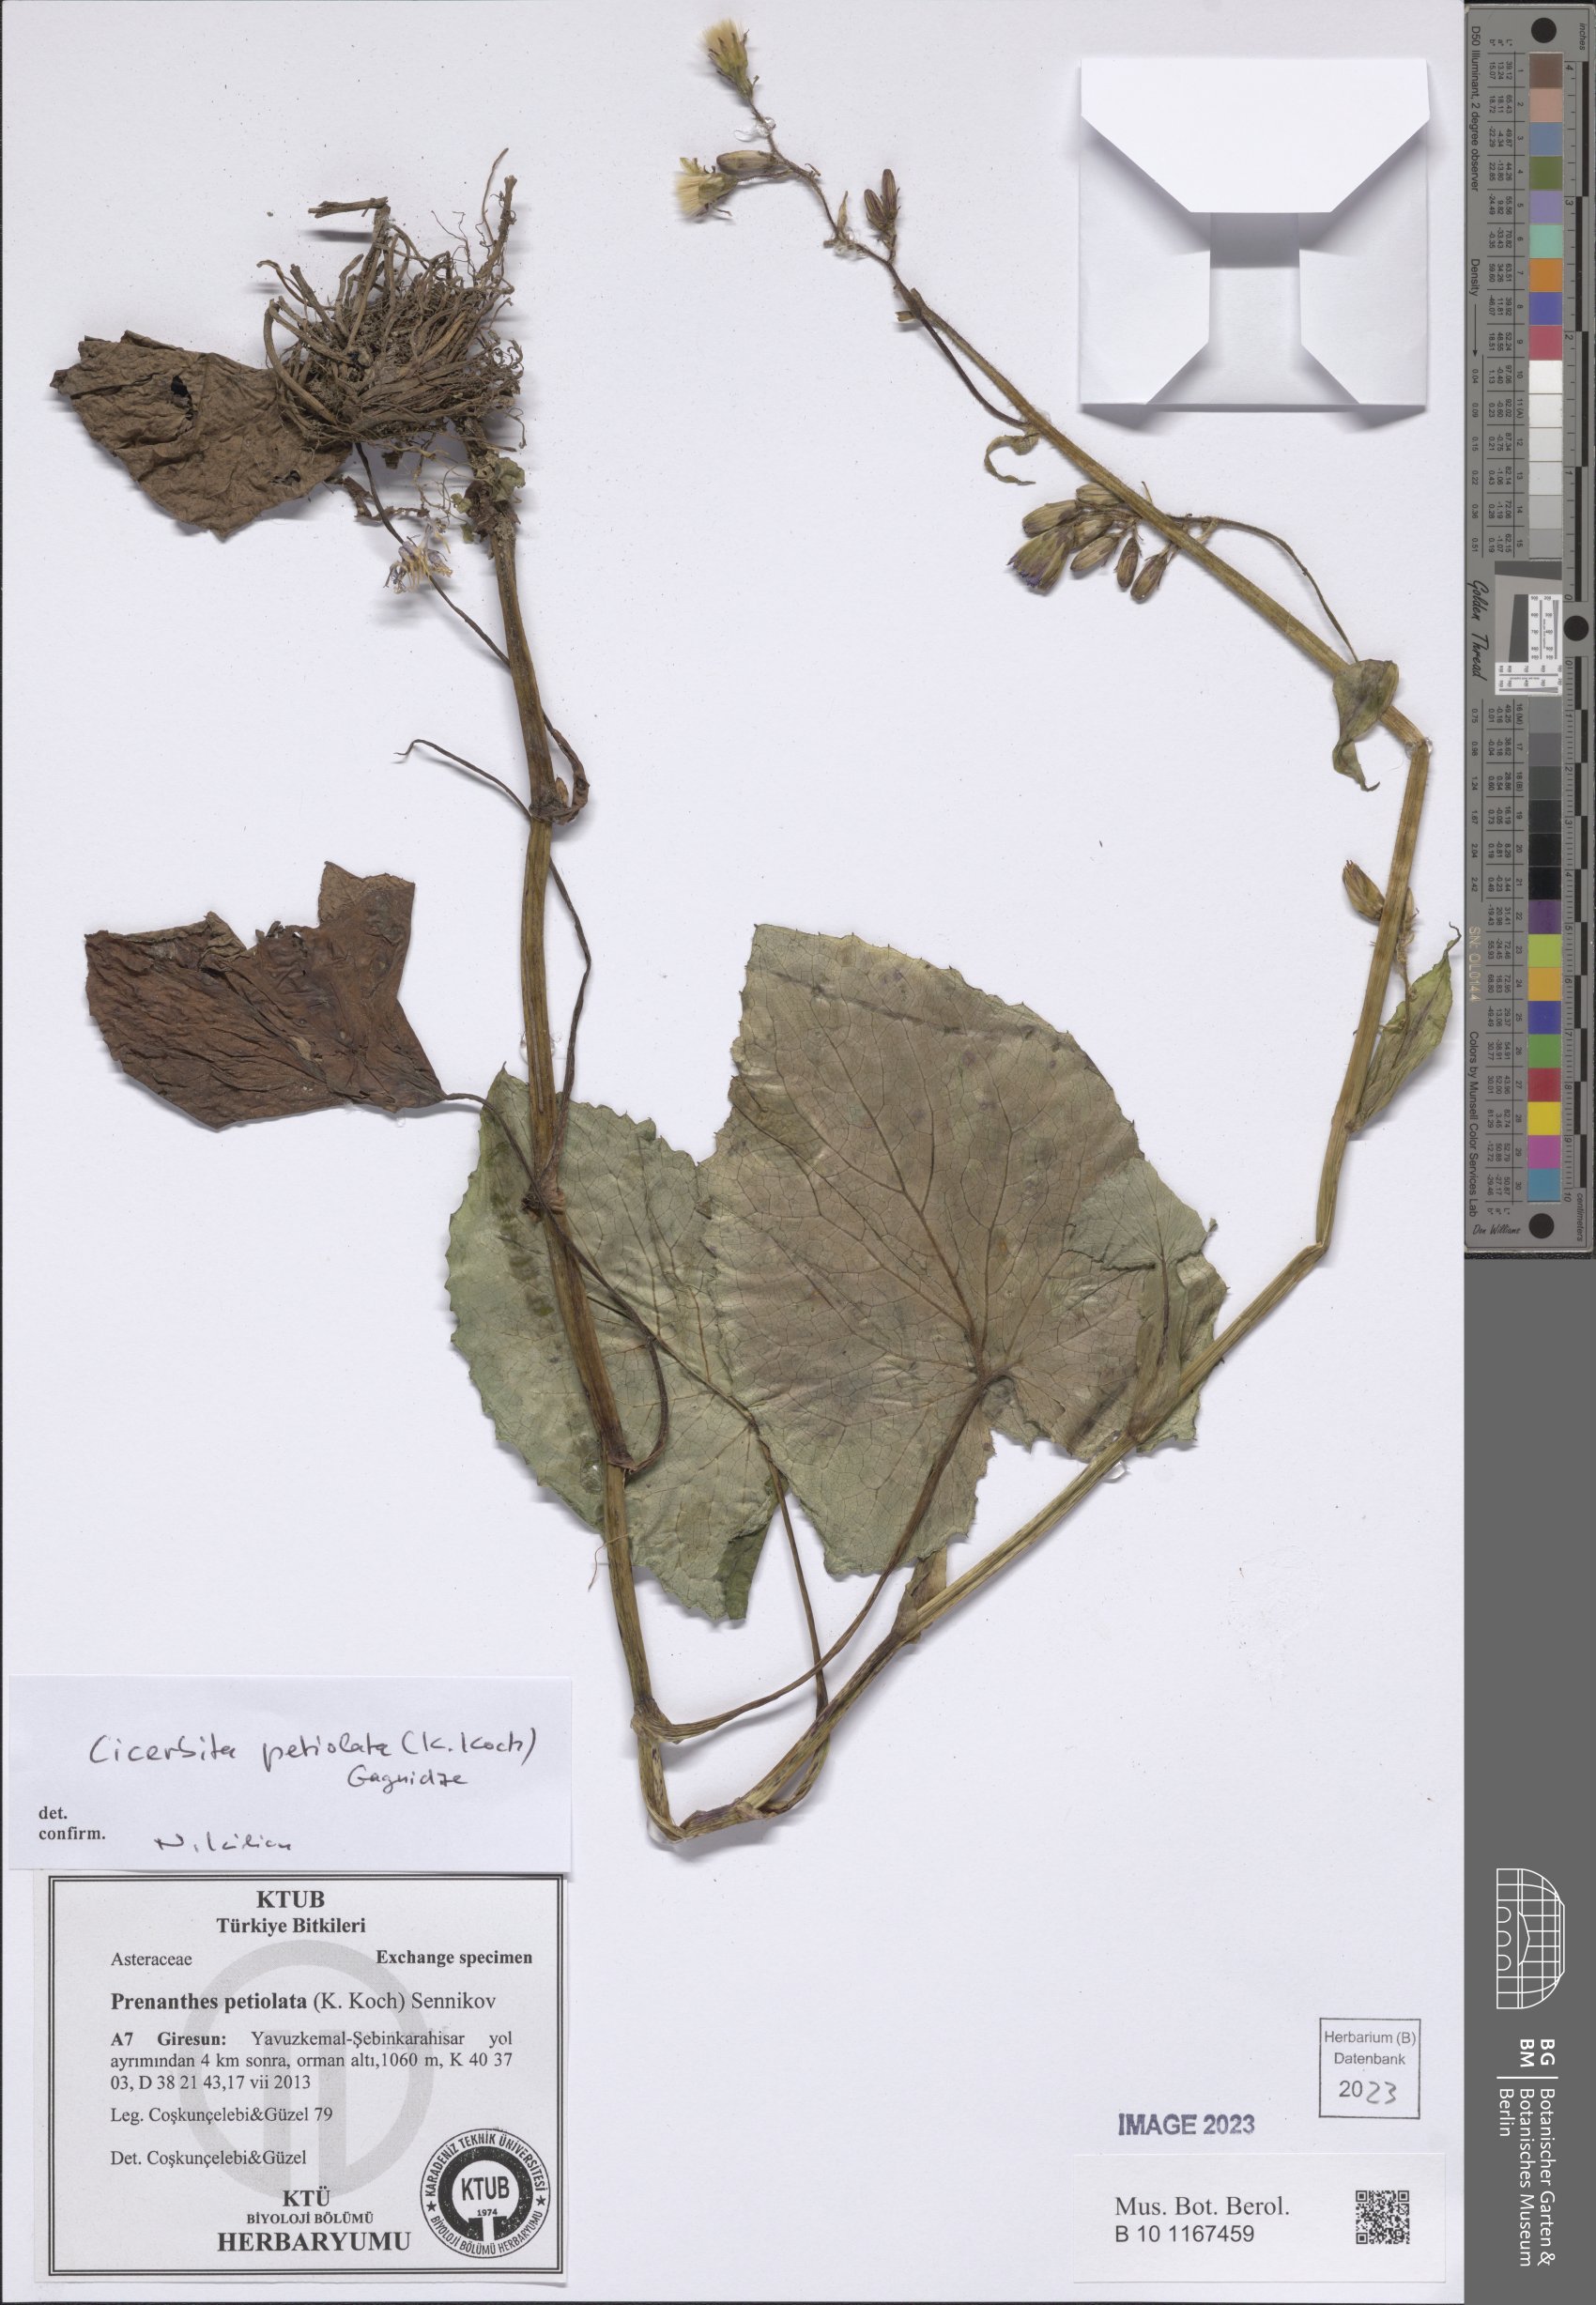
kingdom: Plantae
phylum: Tracheophyta
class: Magnoliopsida
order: Asterales
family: Asteraceae
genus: Cicerbita
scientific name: Cicerbita petiolata
